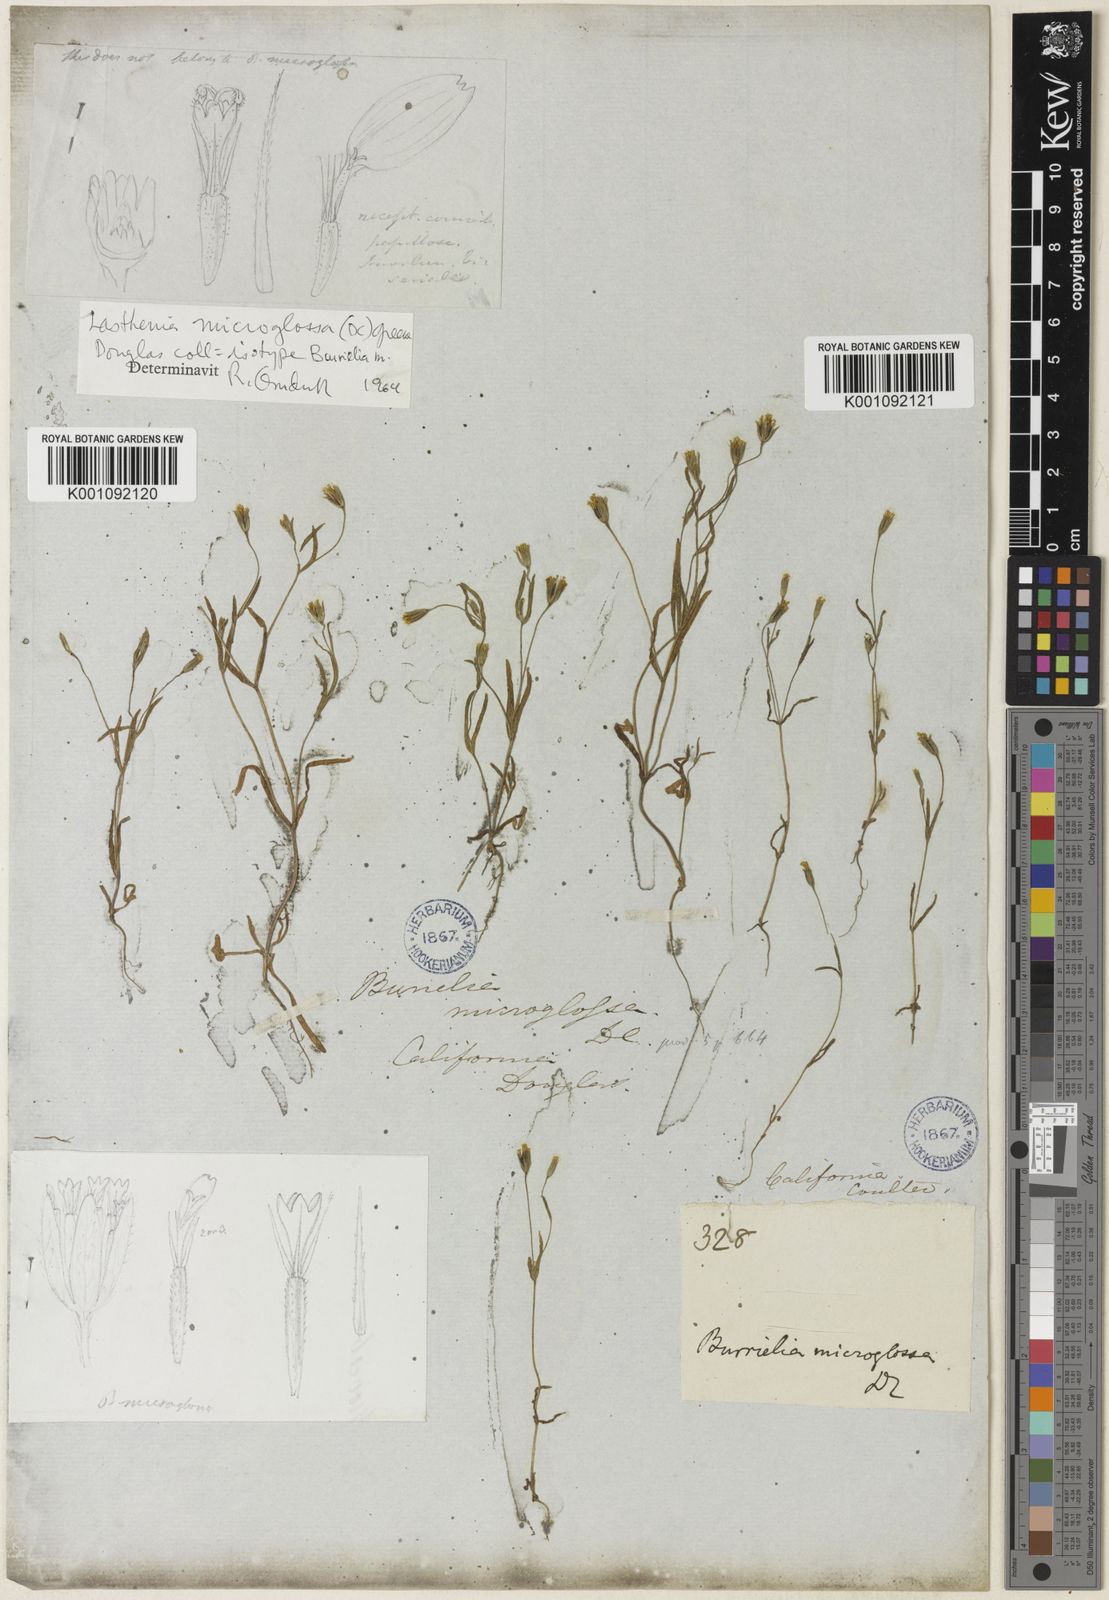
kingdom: Plantae
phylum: Tracheophyta
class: Magnoliopsida
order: Asterales
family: Asteraceae
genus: Lasthenia
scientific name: Lasthenia microglossa
